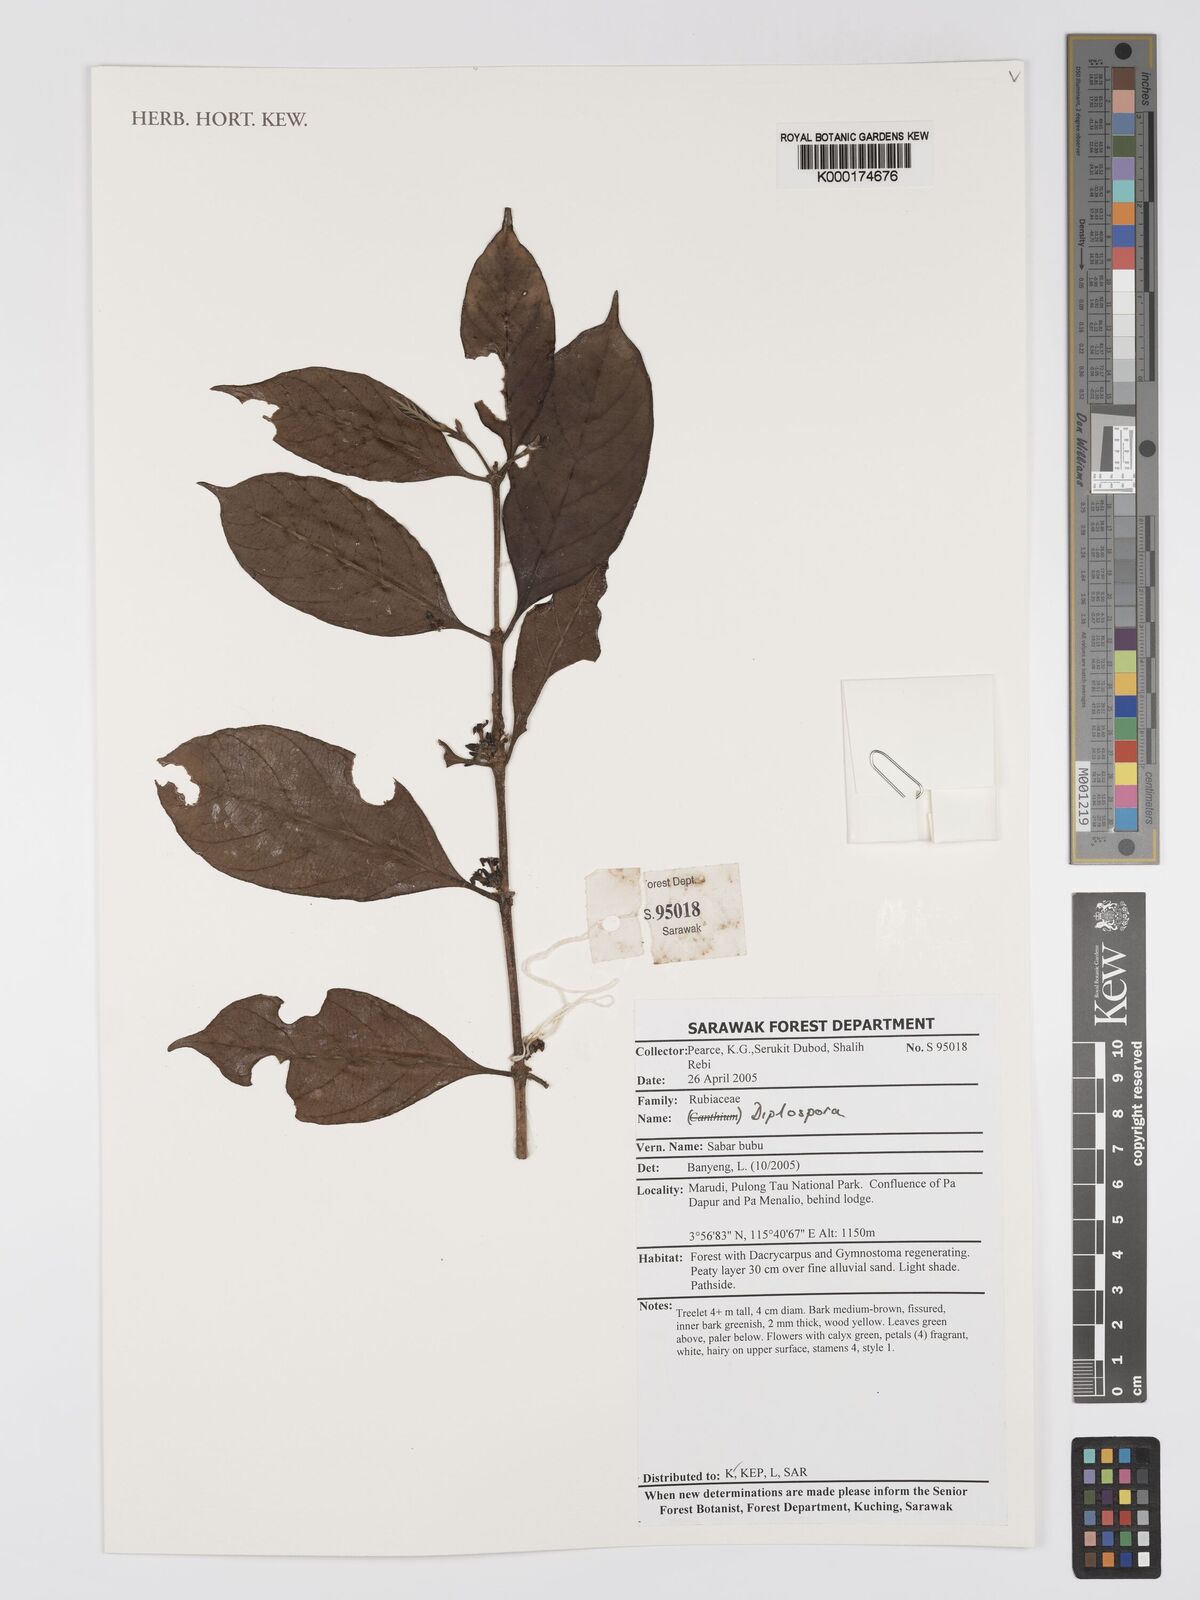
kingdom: Plantae
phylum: Tracheophyta
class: Magnoliopsida
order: Gentianales
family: Rubiaceae
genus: Diplospora
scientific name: Diplospora
